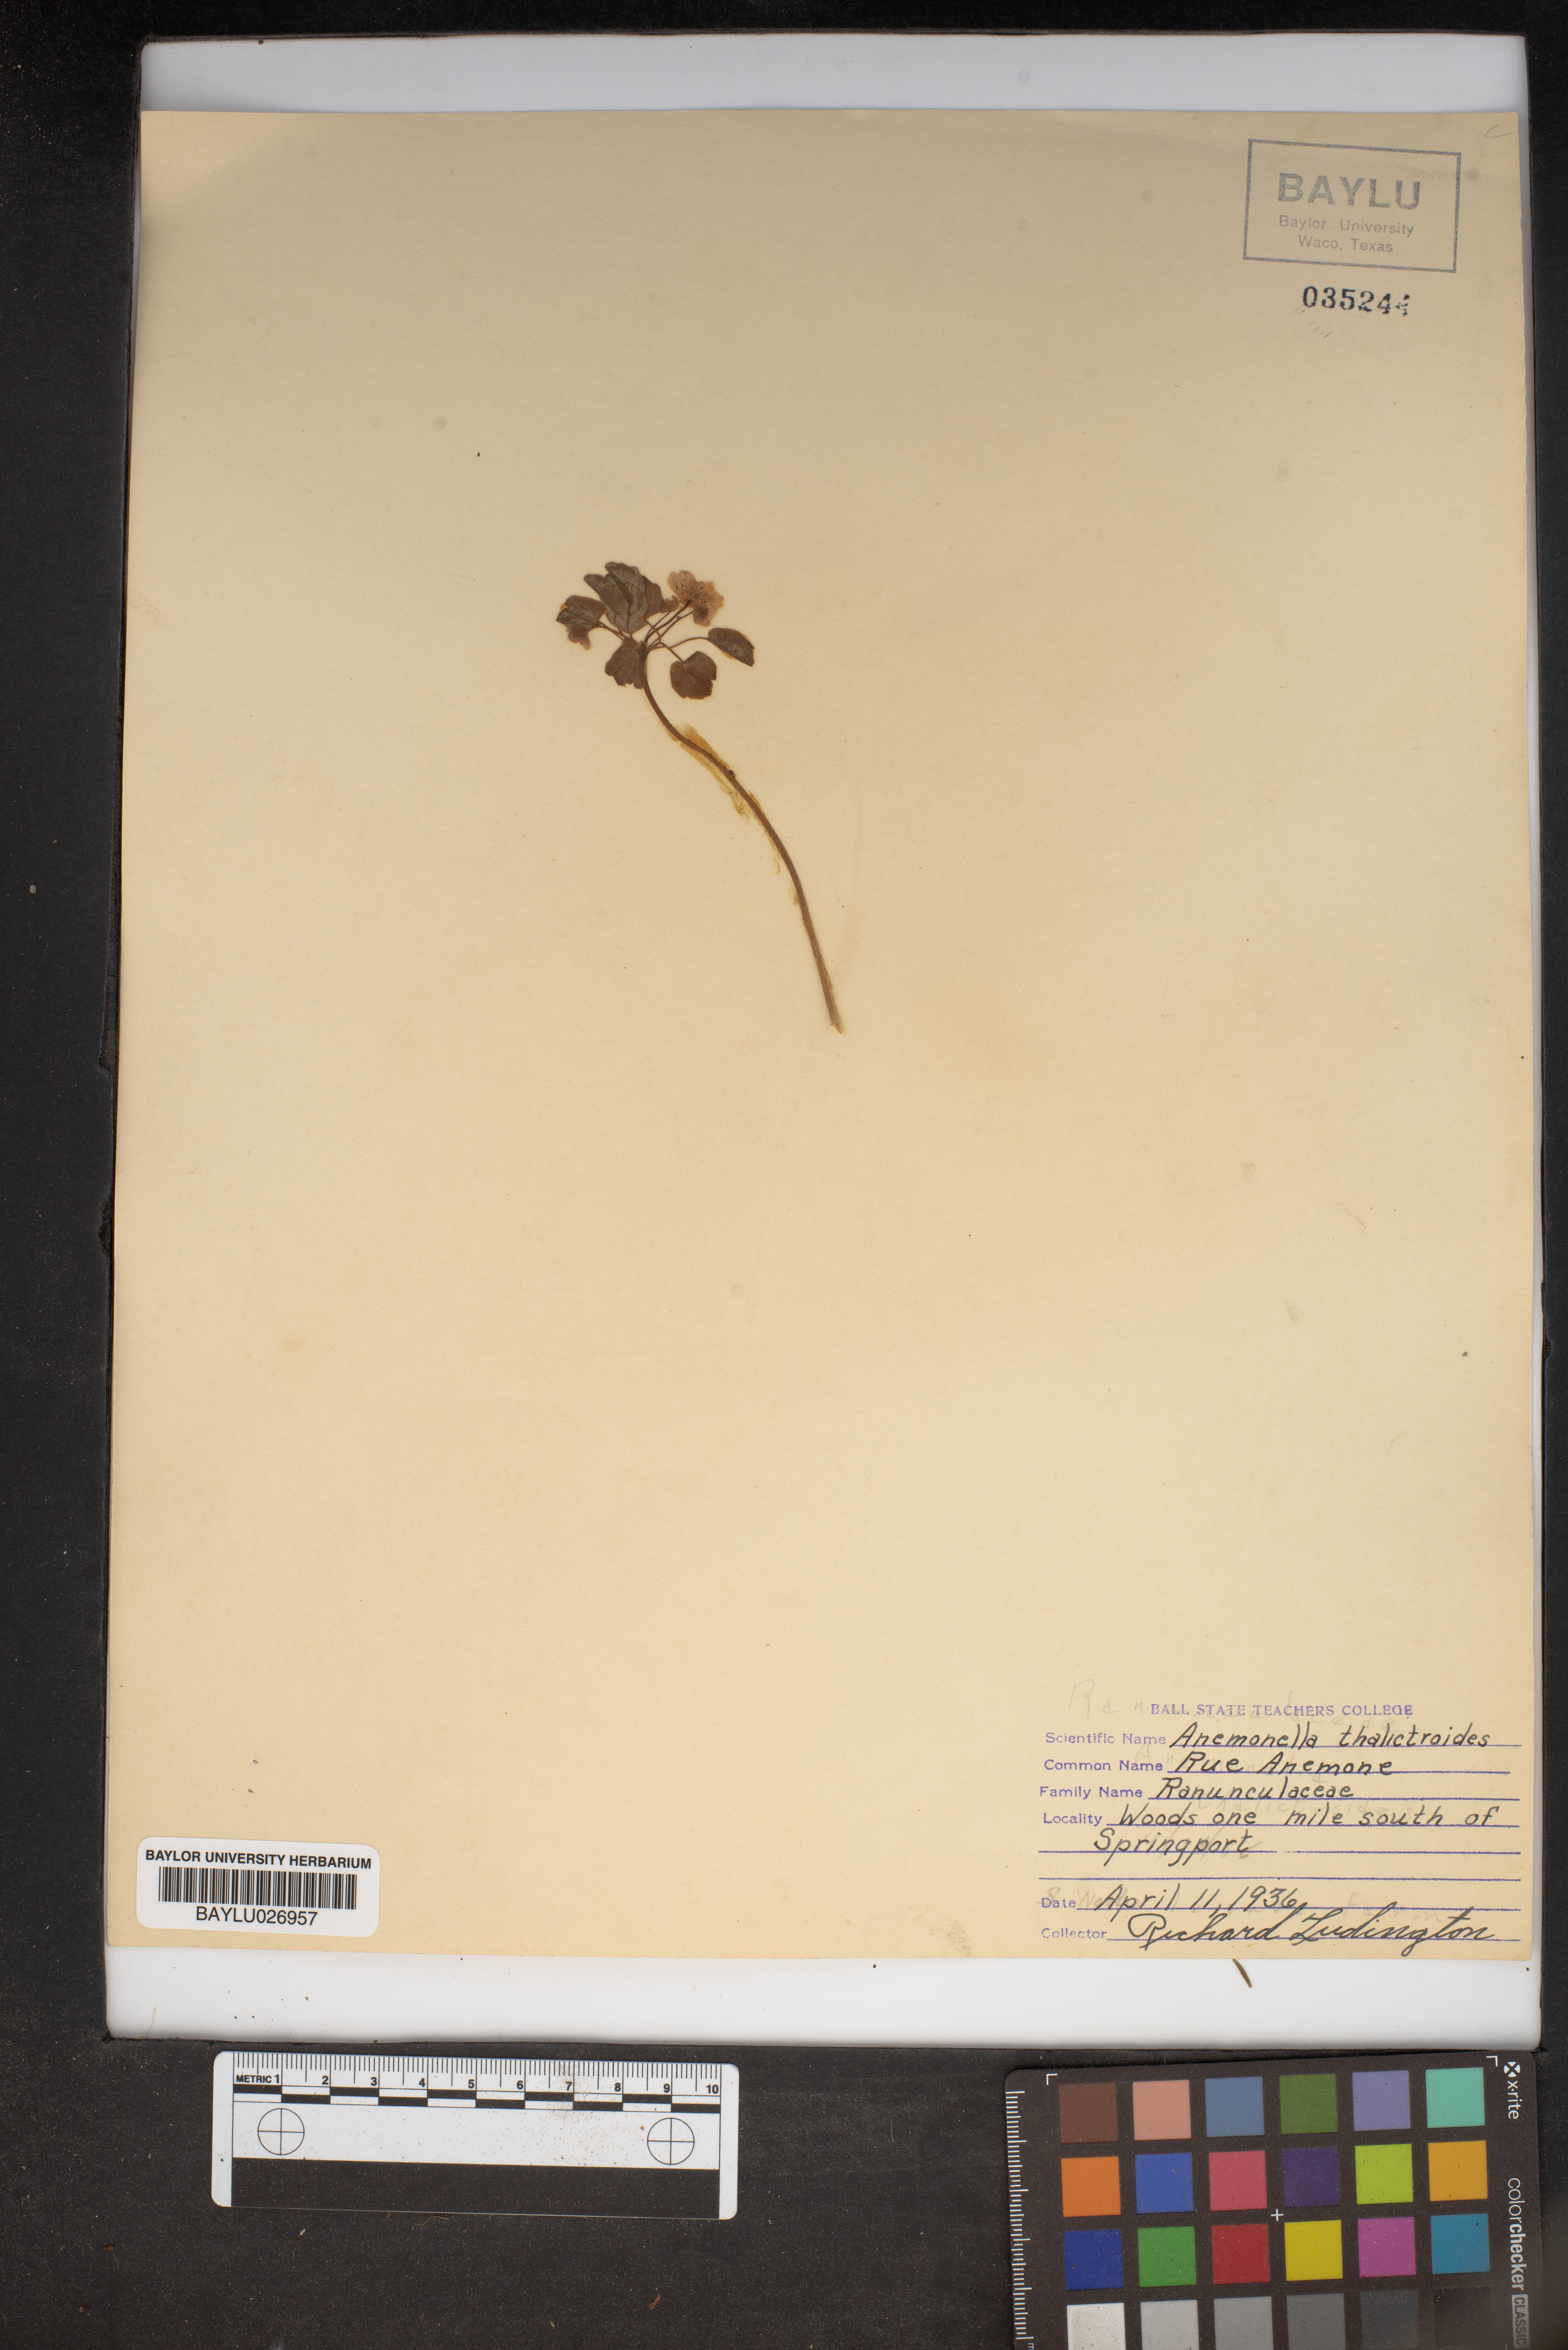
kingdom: Plantae
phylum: Tracheophyta
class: Magnoliopsida
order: Ranunculales
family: Ranunculaceae
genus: Thalictrum
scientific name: Thalictrum thalictroides
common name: Rue-anemone
